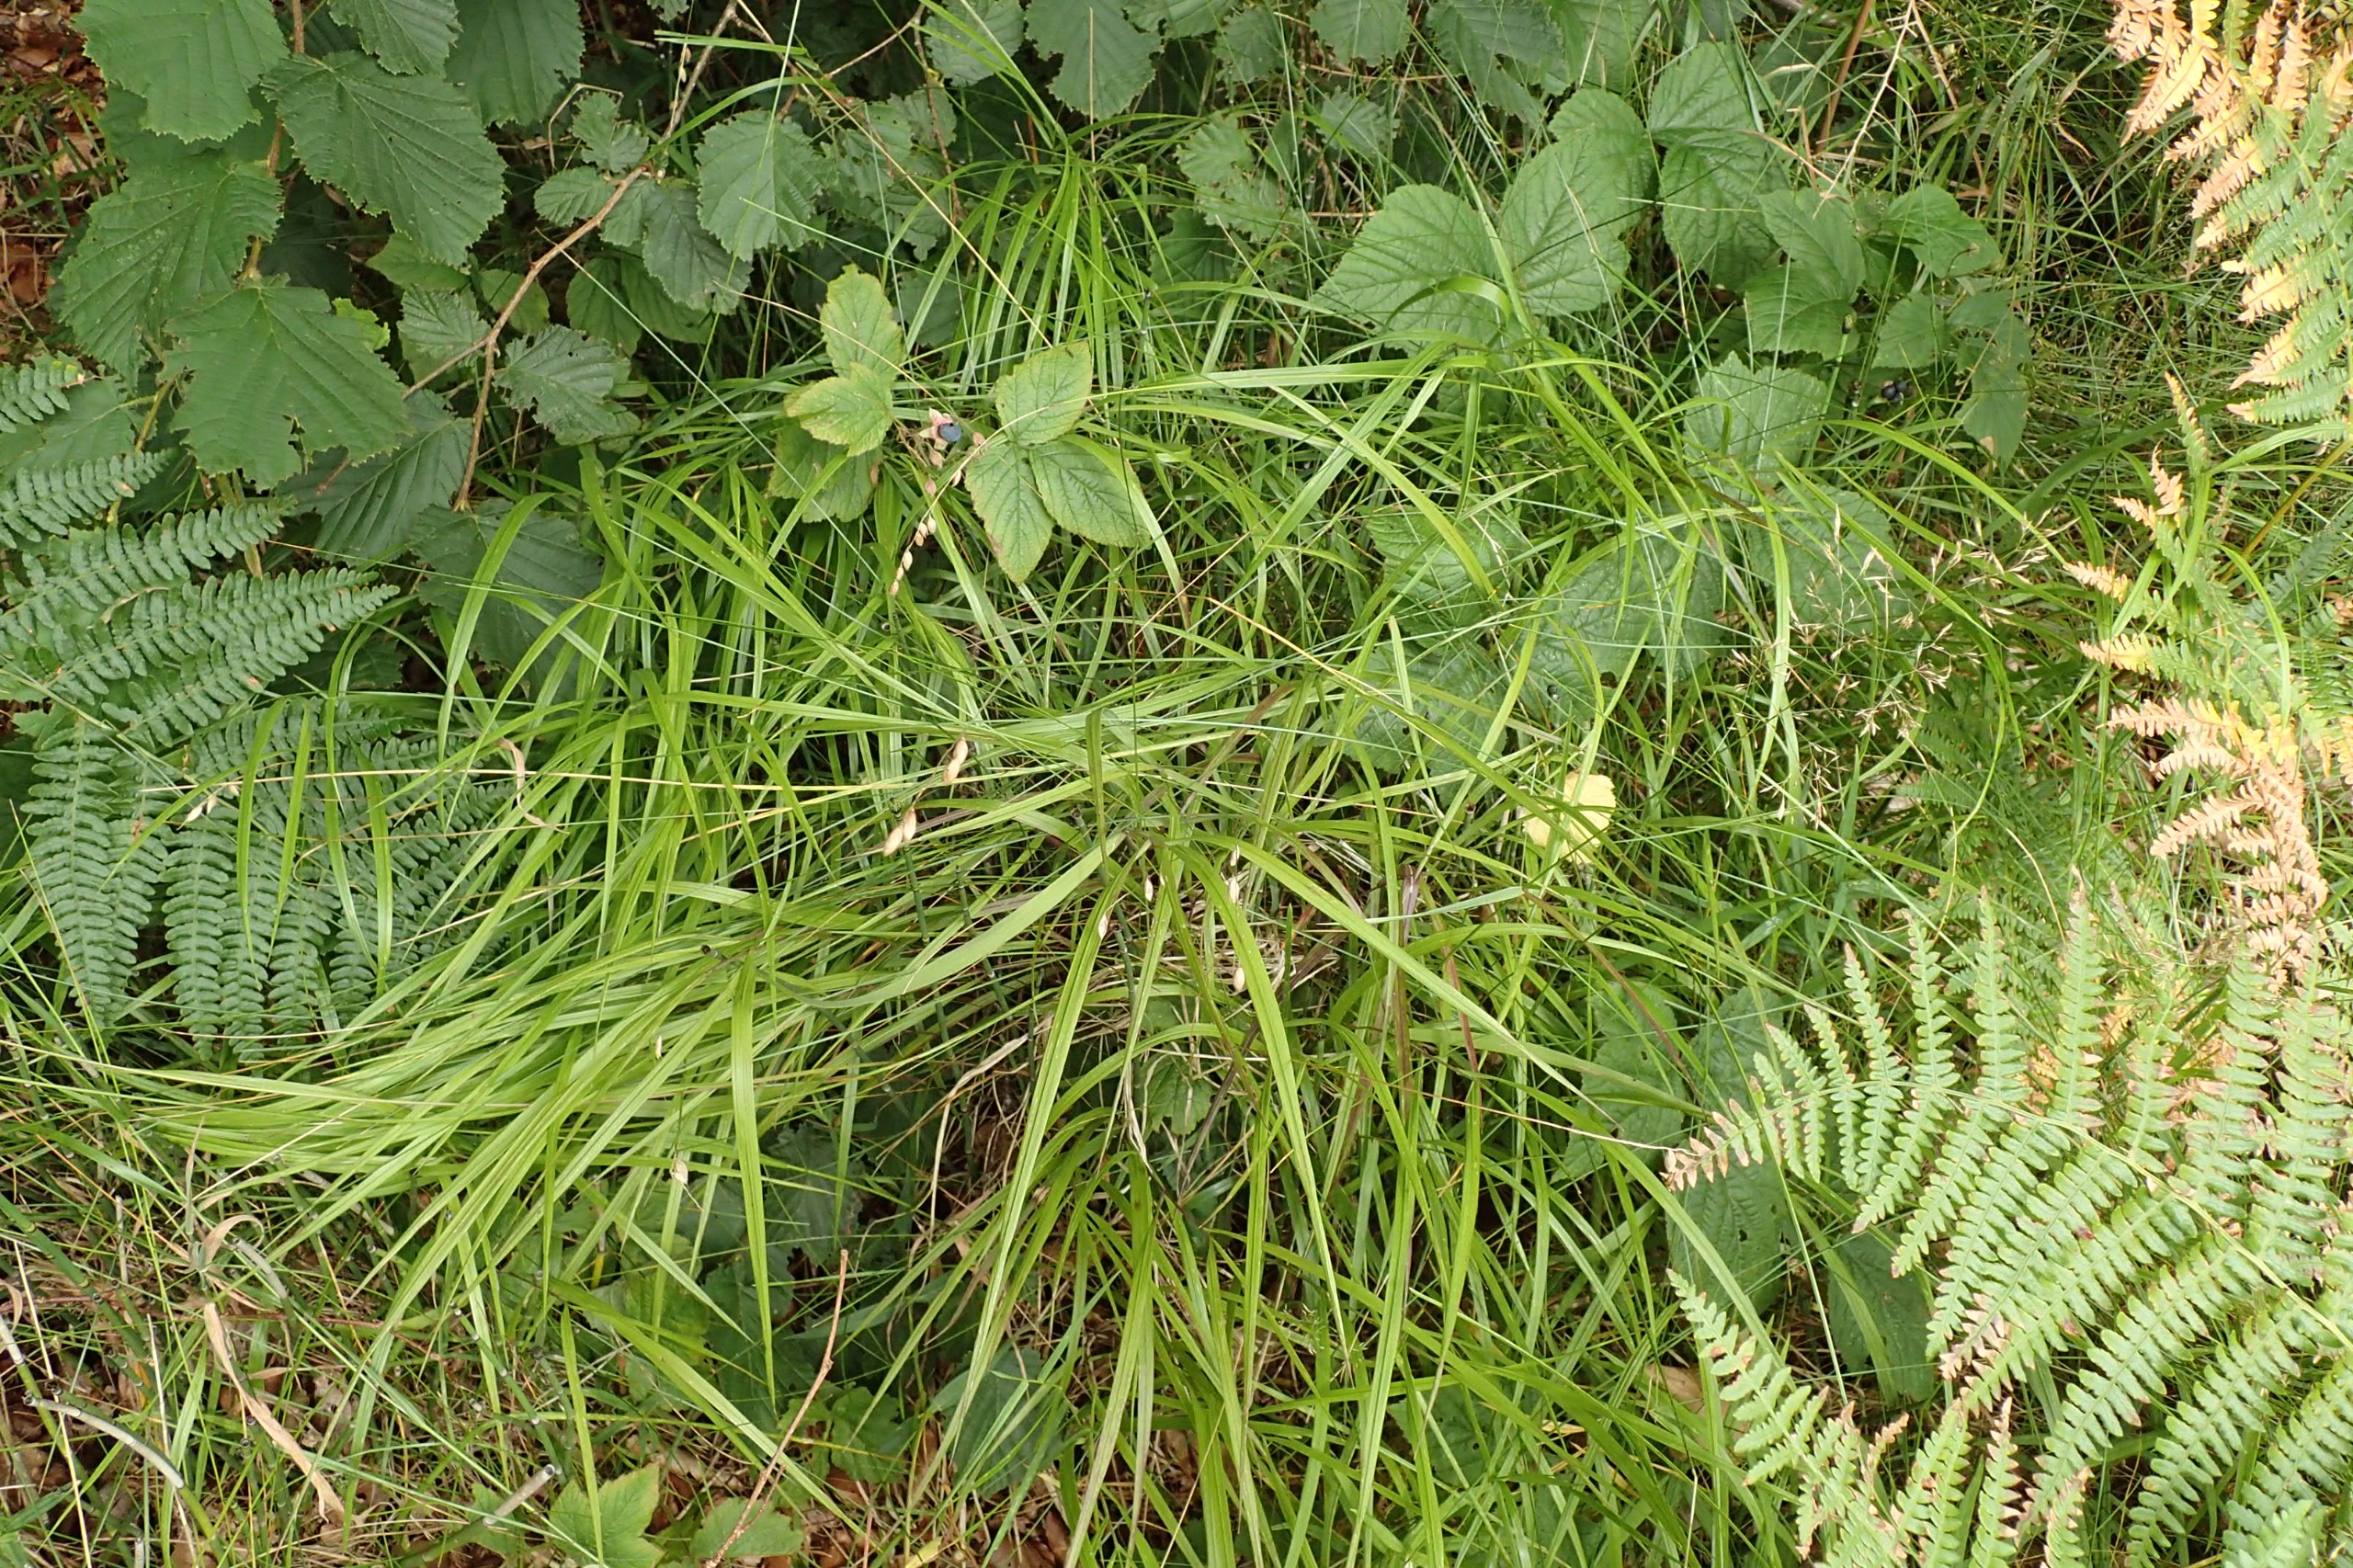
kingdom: Plantae
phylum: Tracheophyta
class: Liliopsida
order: Poales
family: Poaceae
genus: Melica
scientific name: Melica nutans
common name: Nikkende flitteraks
